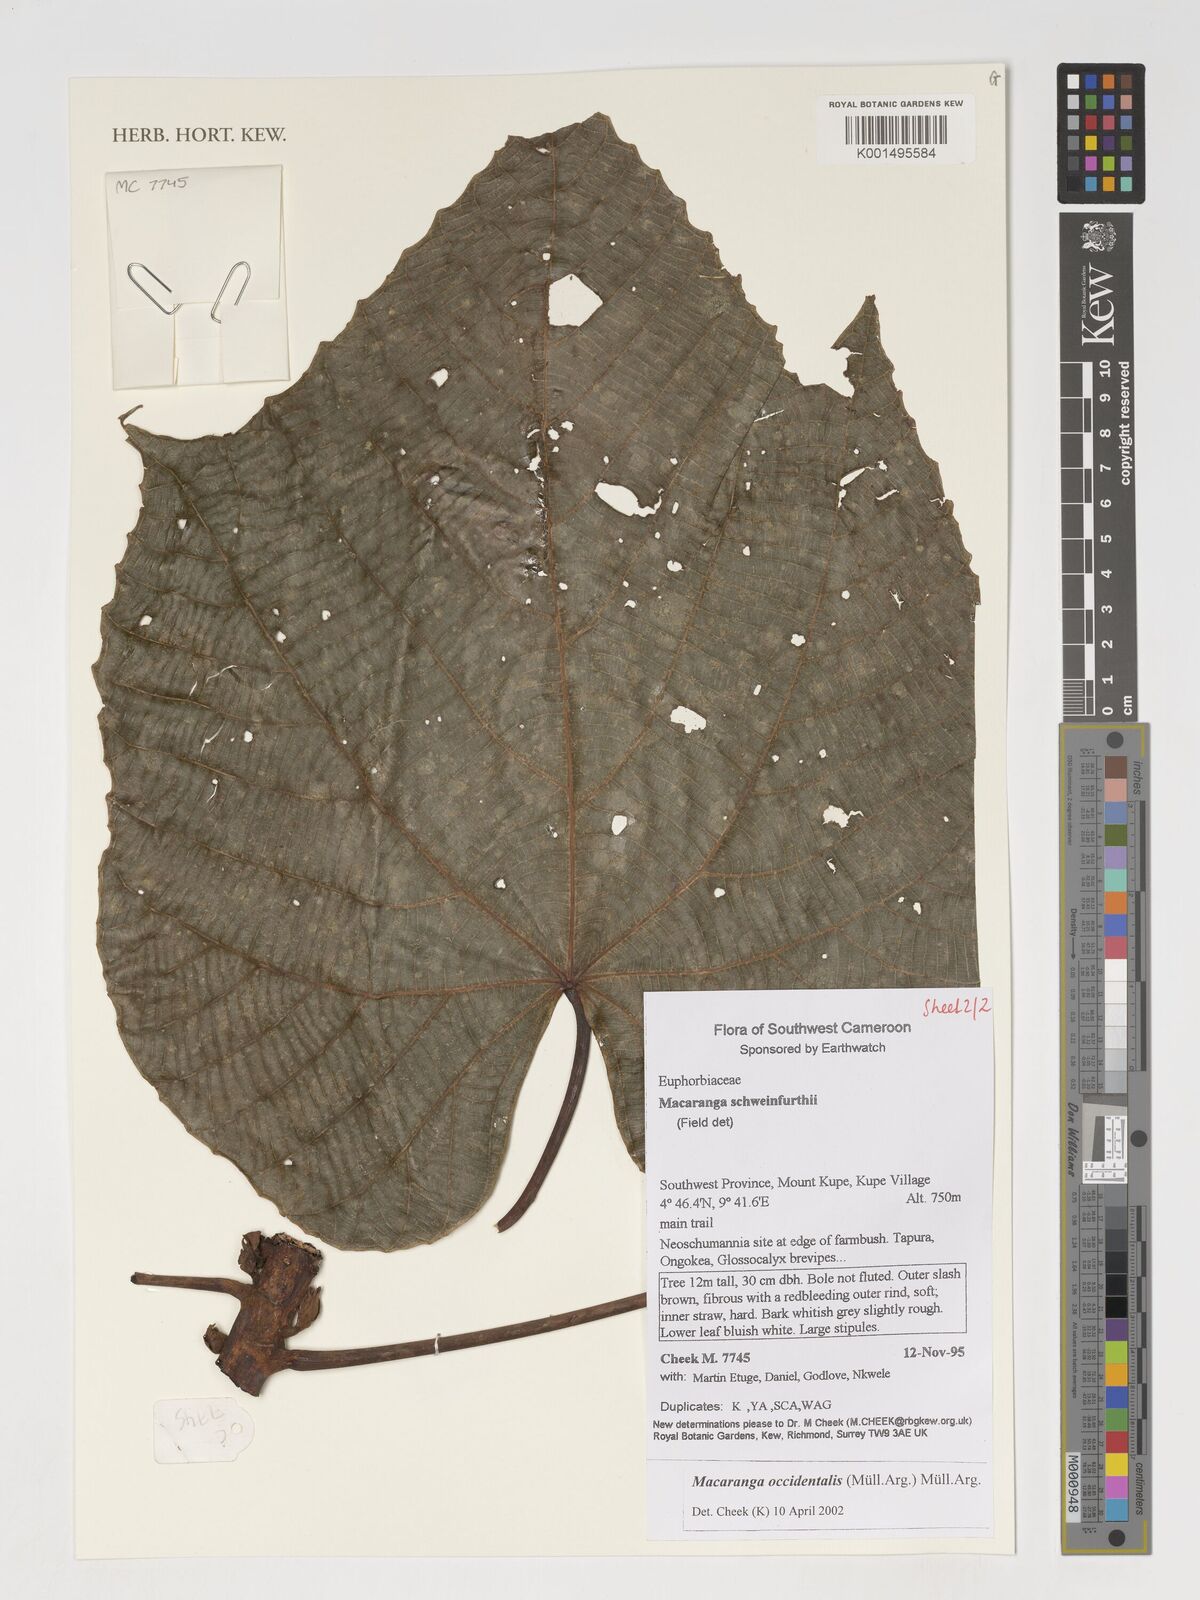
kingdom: Plantae
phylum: Tracheophyta
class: Magnoliopsida
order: Malpighiales
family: Euphorbiaceae
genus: Macaranga
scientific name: Macaranga schweinfurthii
